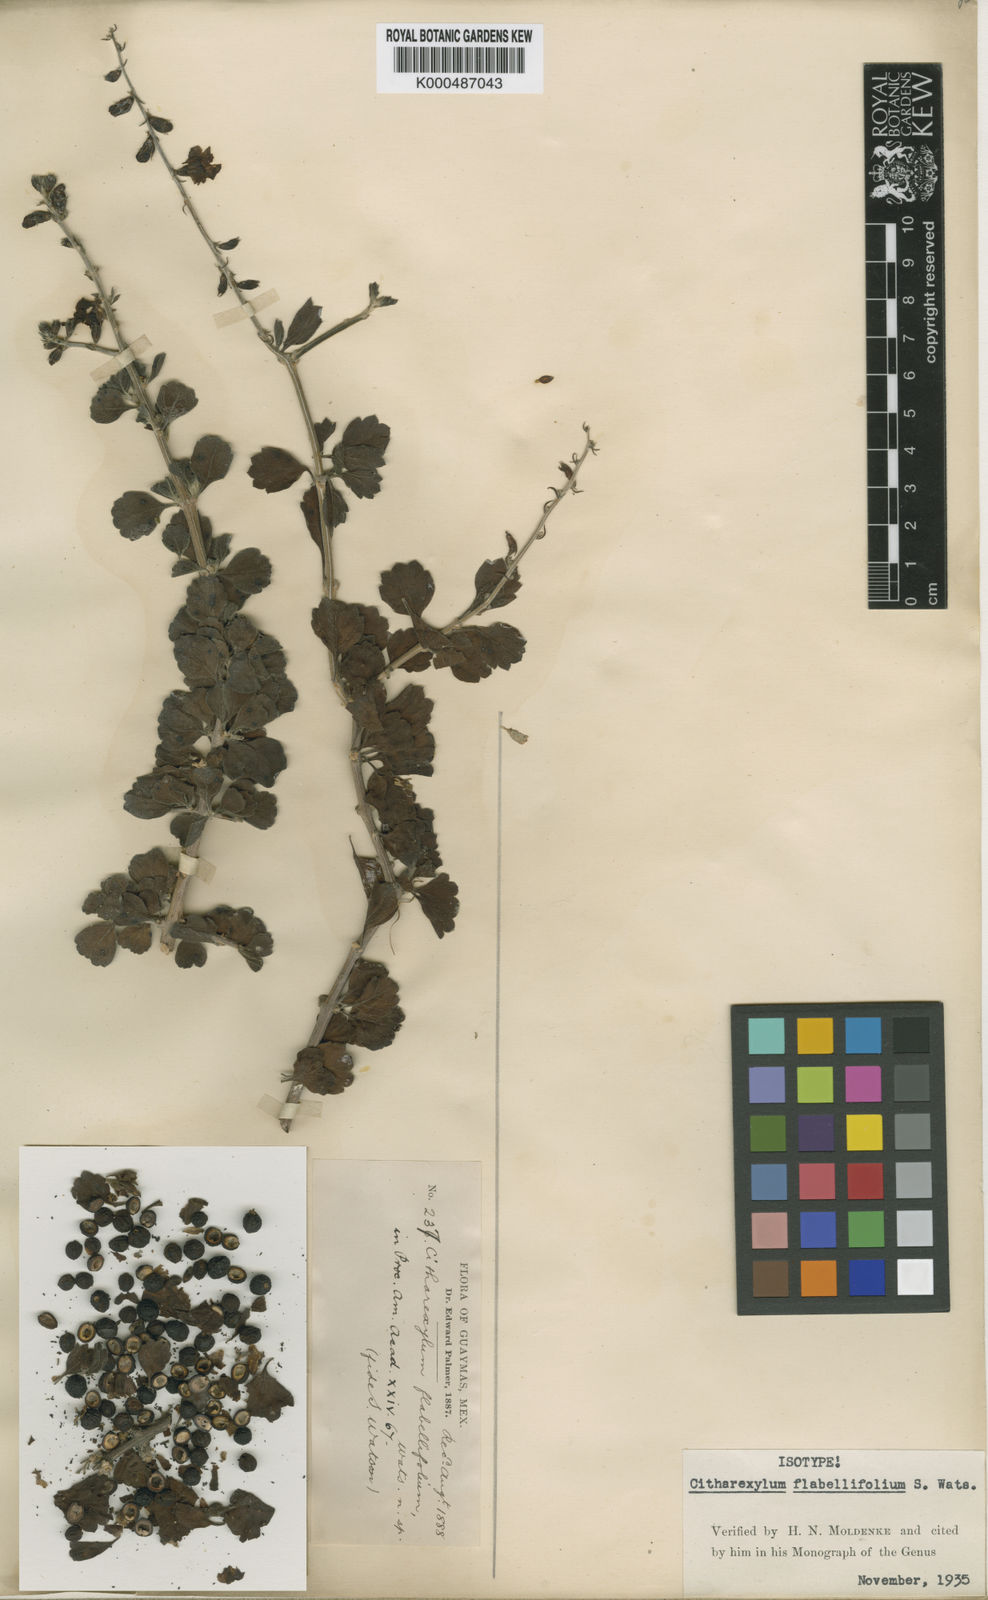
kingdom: Plantae
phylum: Tracheophyta
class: Magnoliopsida
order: Lamiales
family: Verbenaceae
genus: Citharexylum
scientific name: Citharexylum flabellifolium
